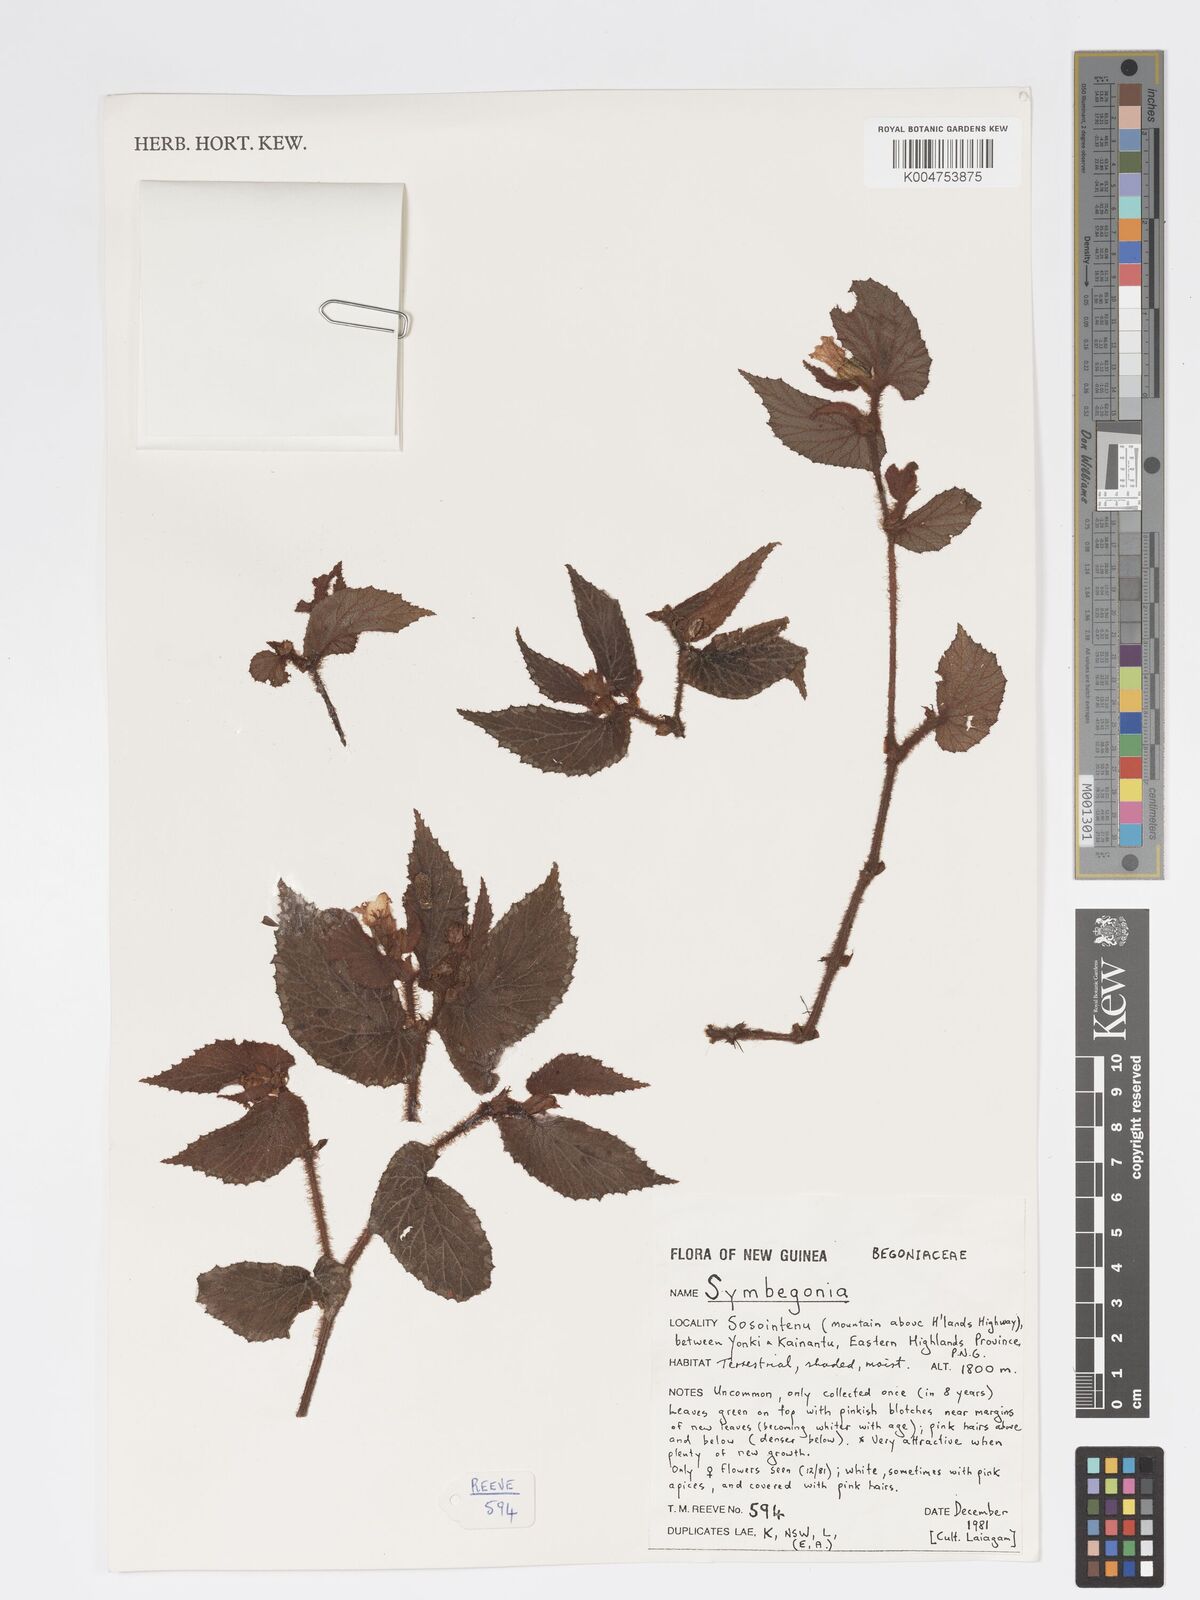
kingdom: Plantae
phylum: Tracheophyta
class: Magnoliopsida
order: Cucurbitales
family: Begoniaceae
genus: Begonia
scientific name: Begonia
